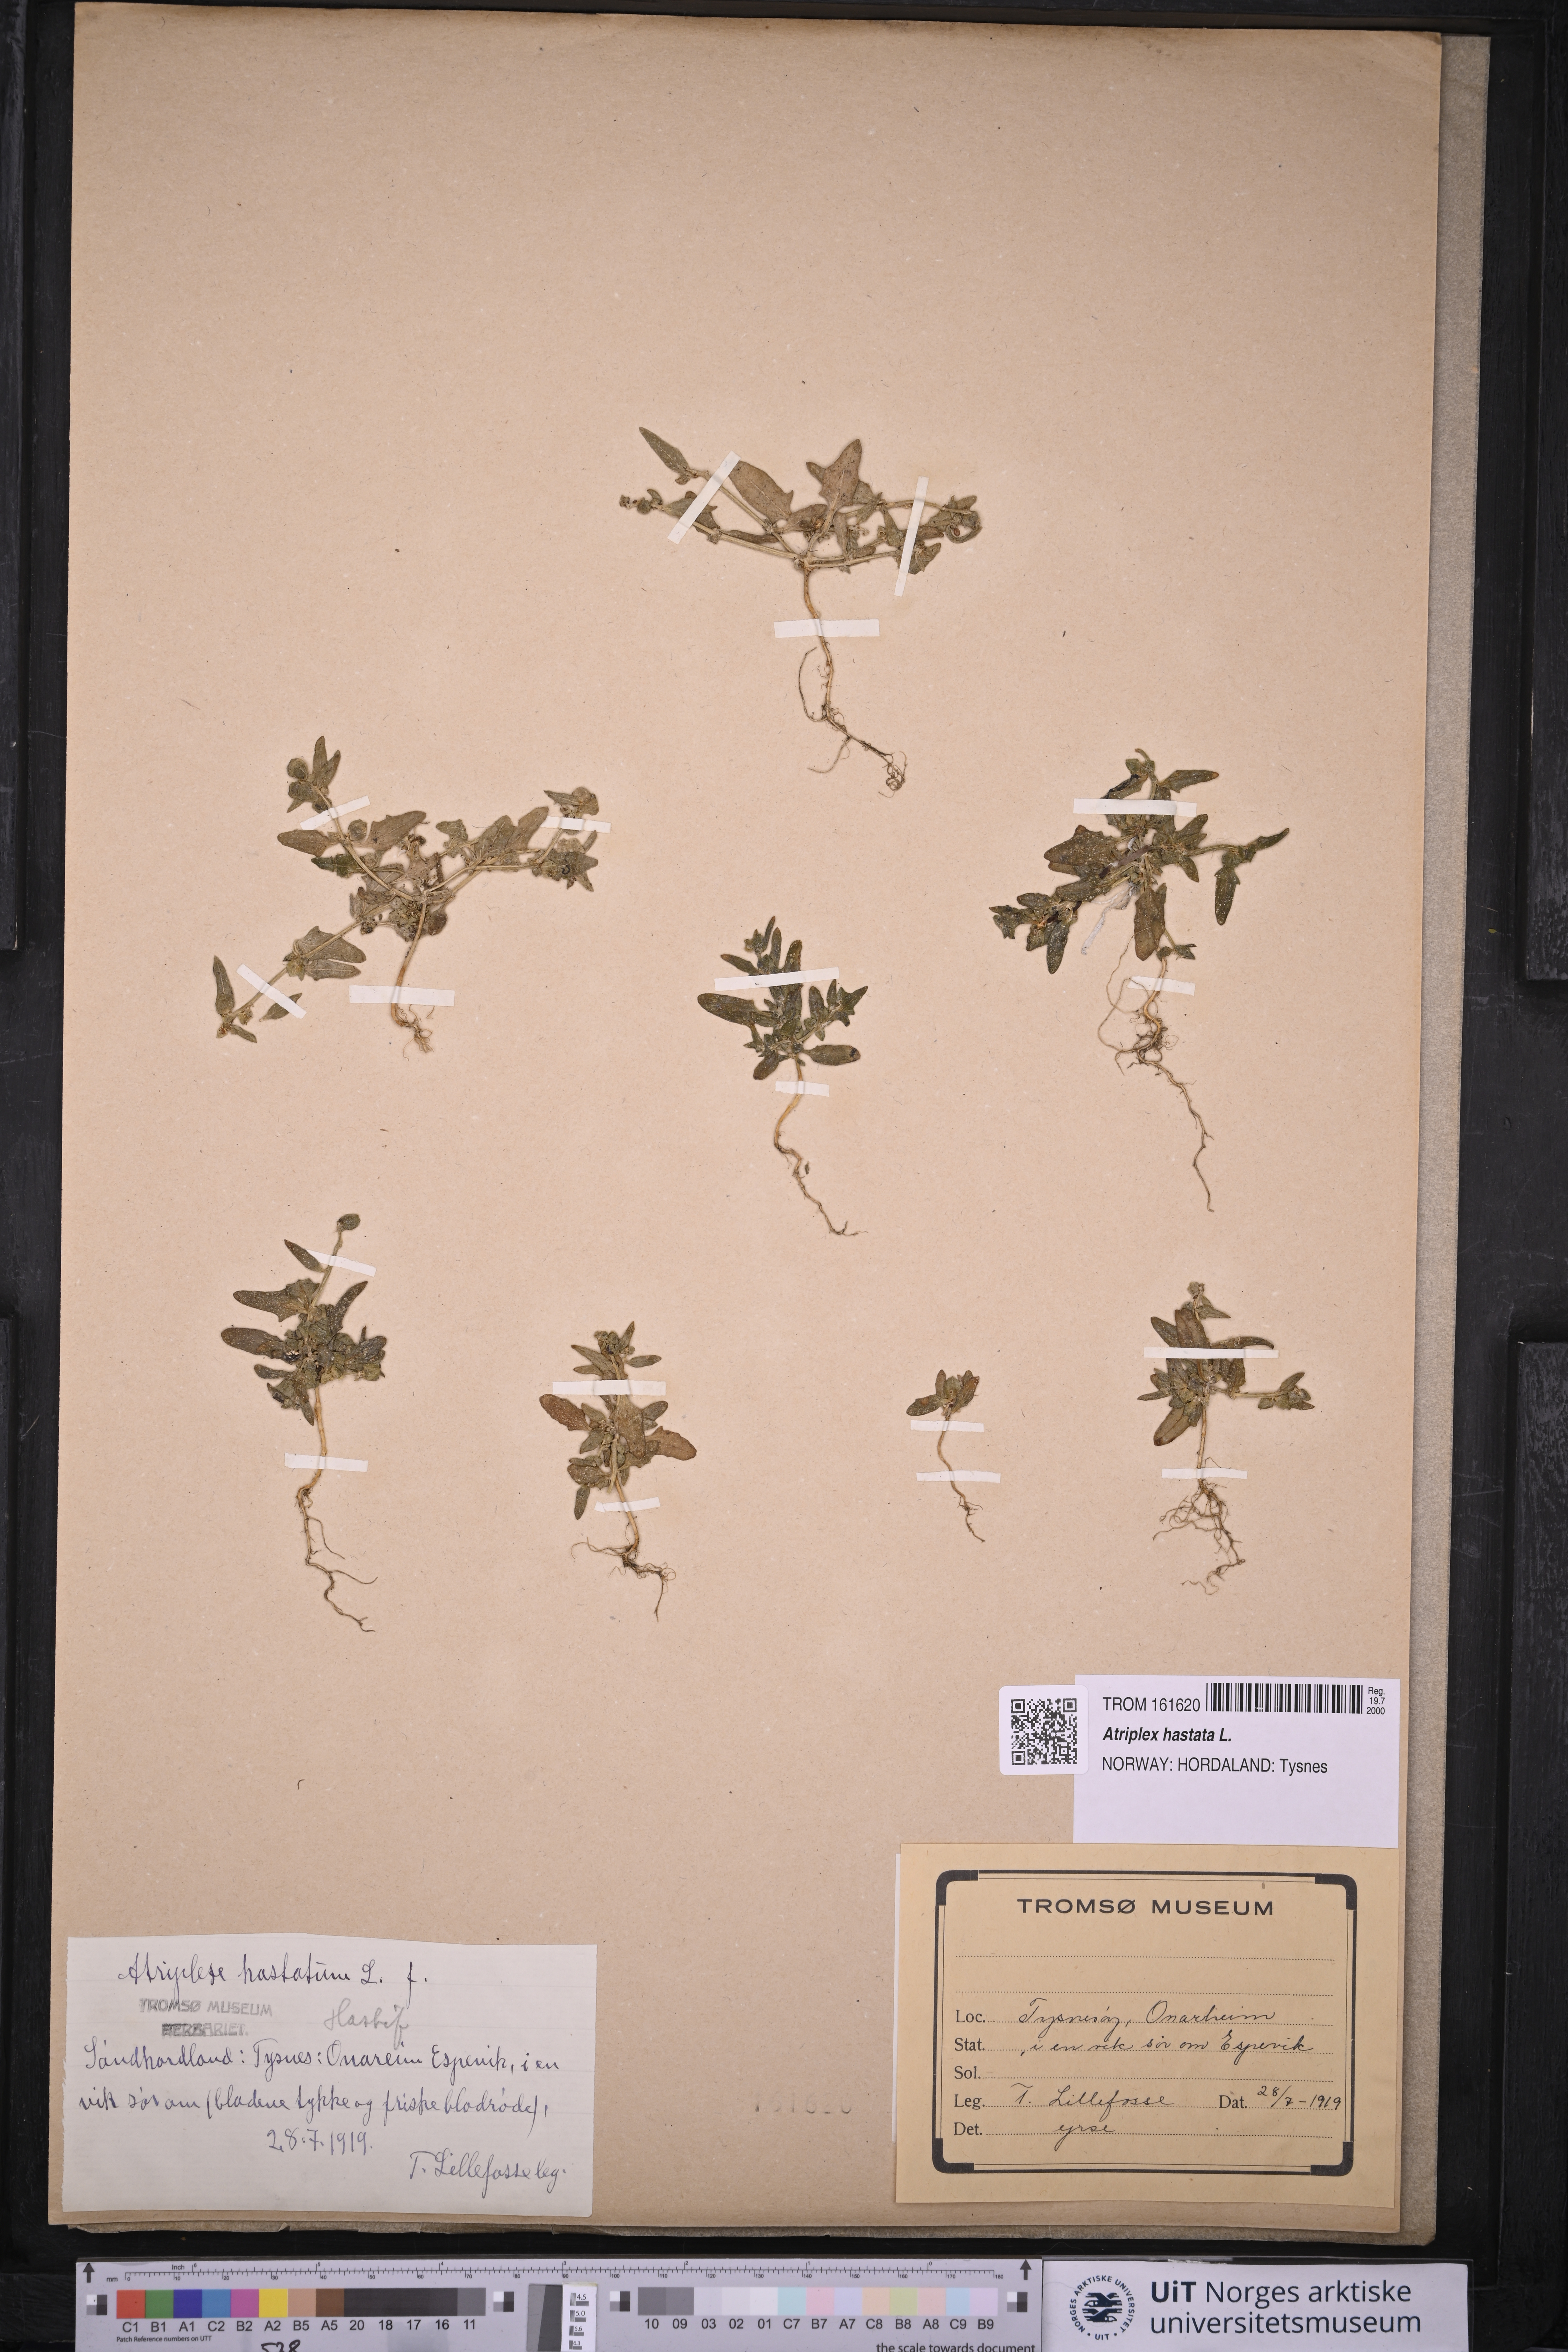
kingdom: Plantae
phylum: Tracheophyta
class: Magnoliopsida
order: Caryophyllales
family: Amaranthaceae
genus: Atriplex
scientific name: Atriplex prostrata
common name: Spear-leaved orache
